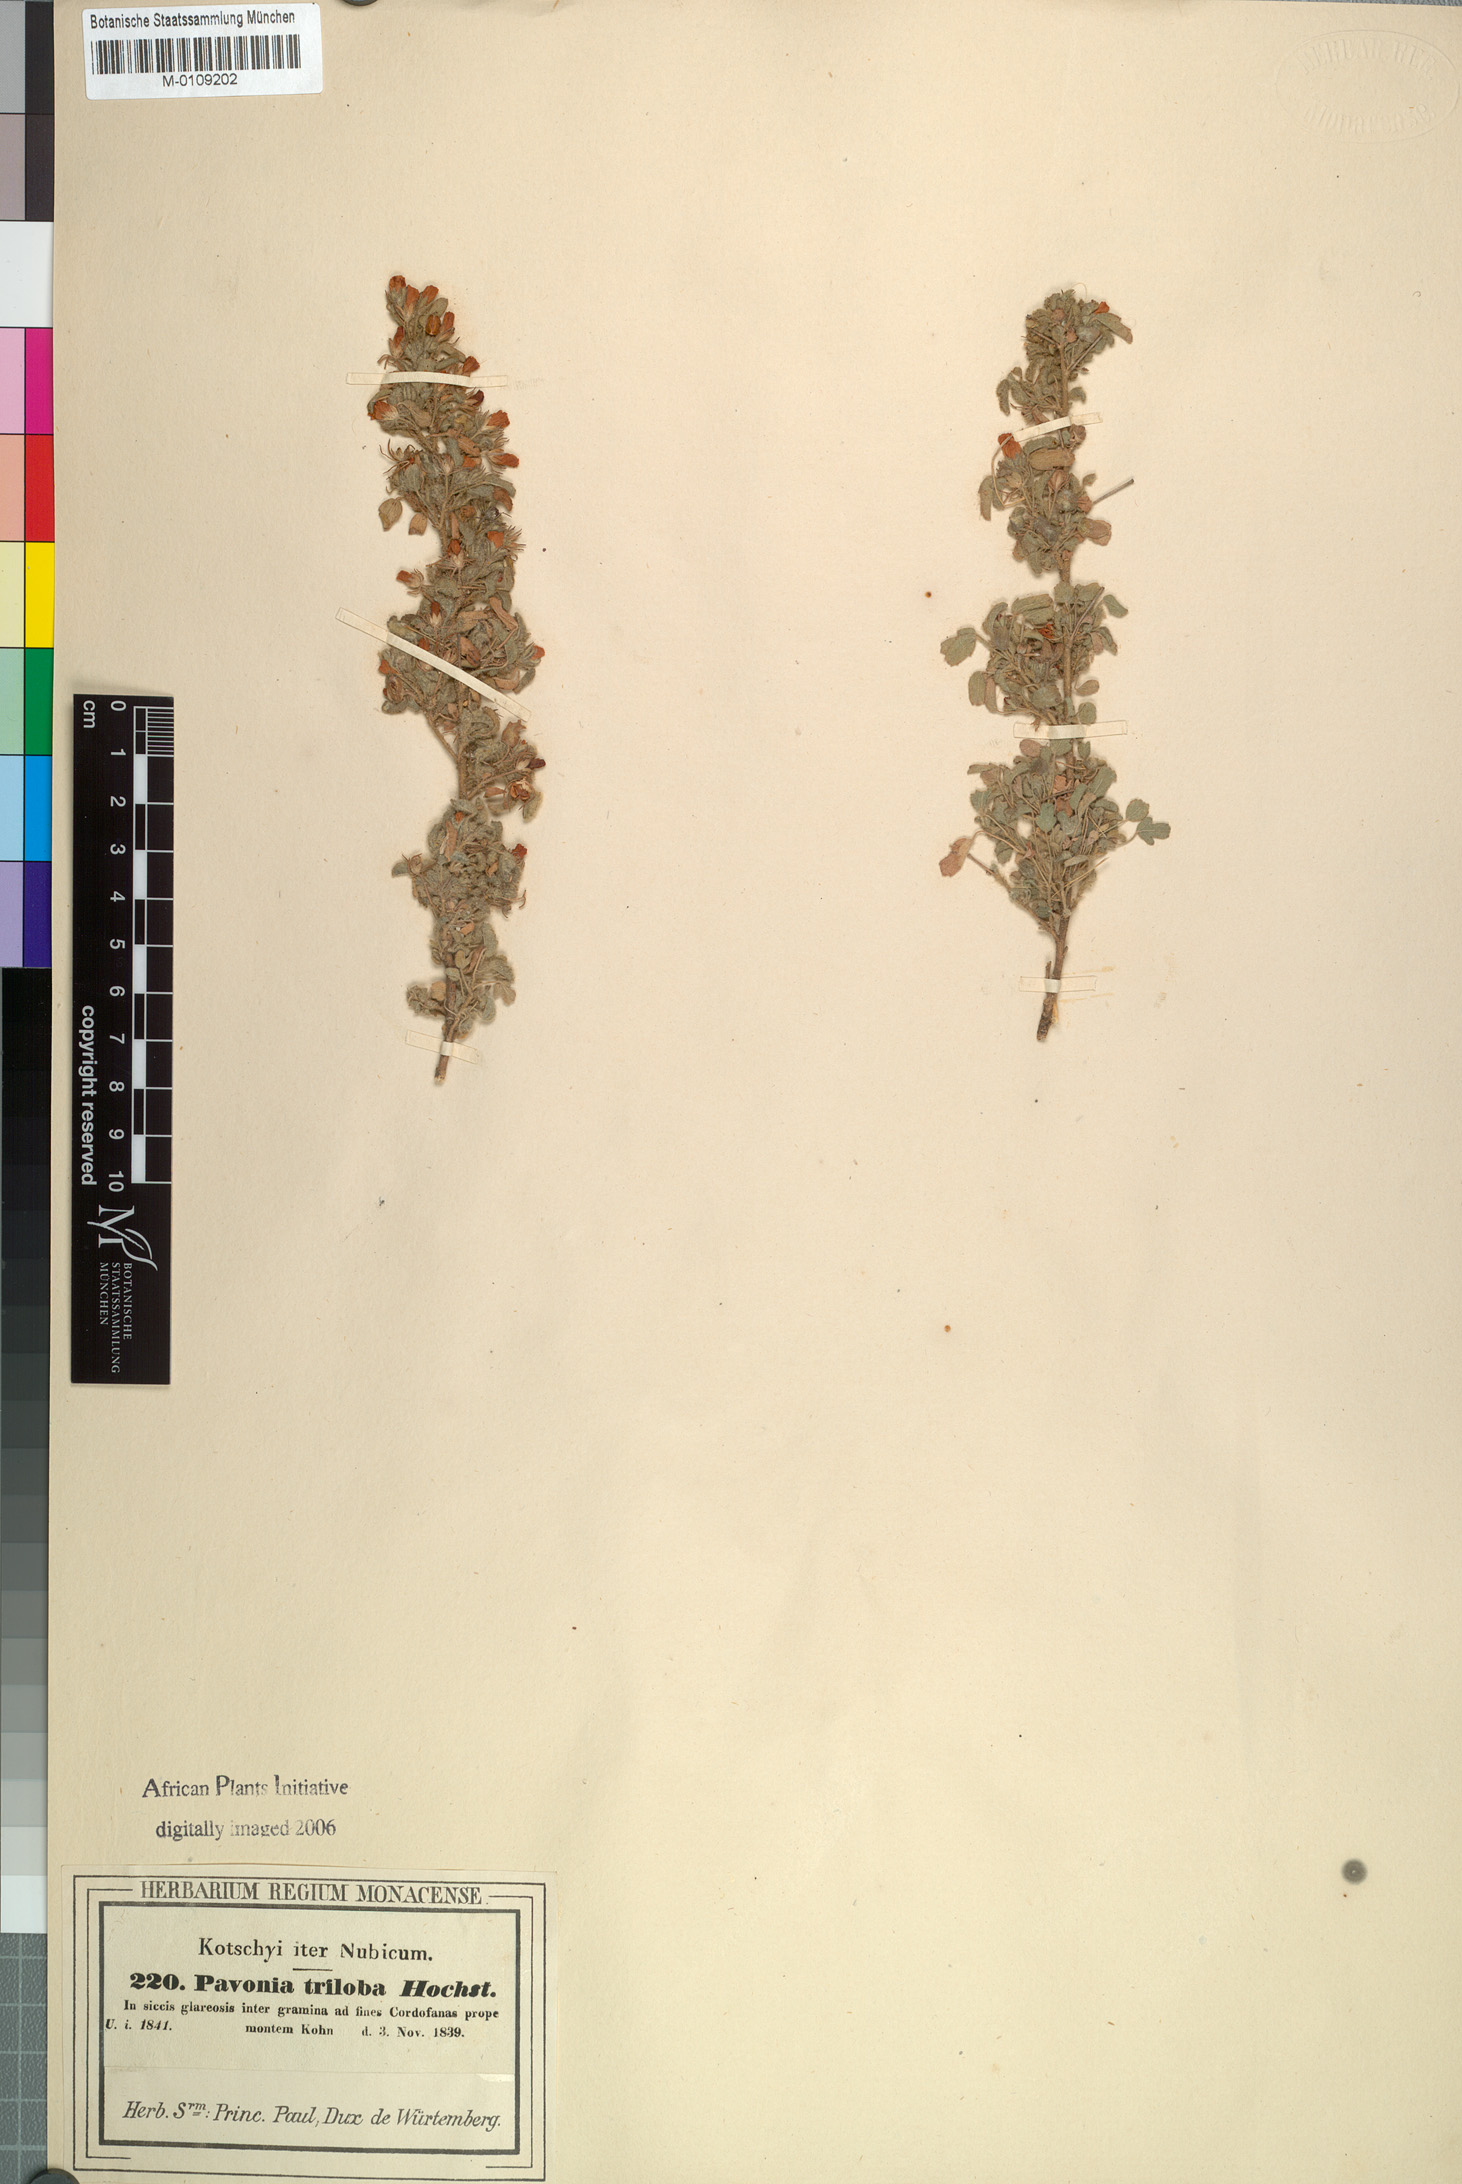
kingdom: Plantae
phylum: Tracheophyta
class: Magnoliopsida
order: Malvales
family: Malvaceae
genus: Pavonia
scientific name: Pavonia triloba
